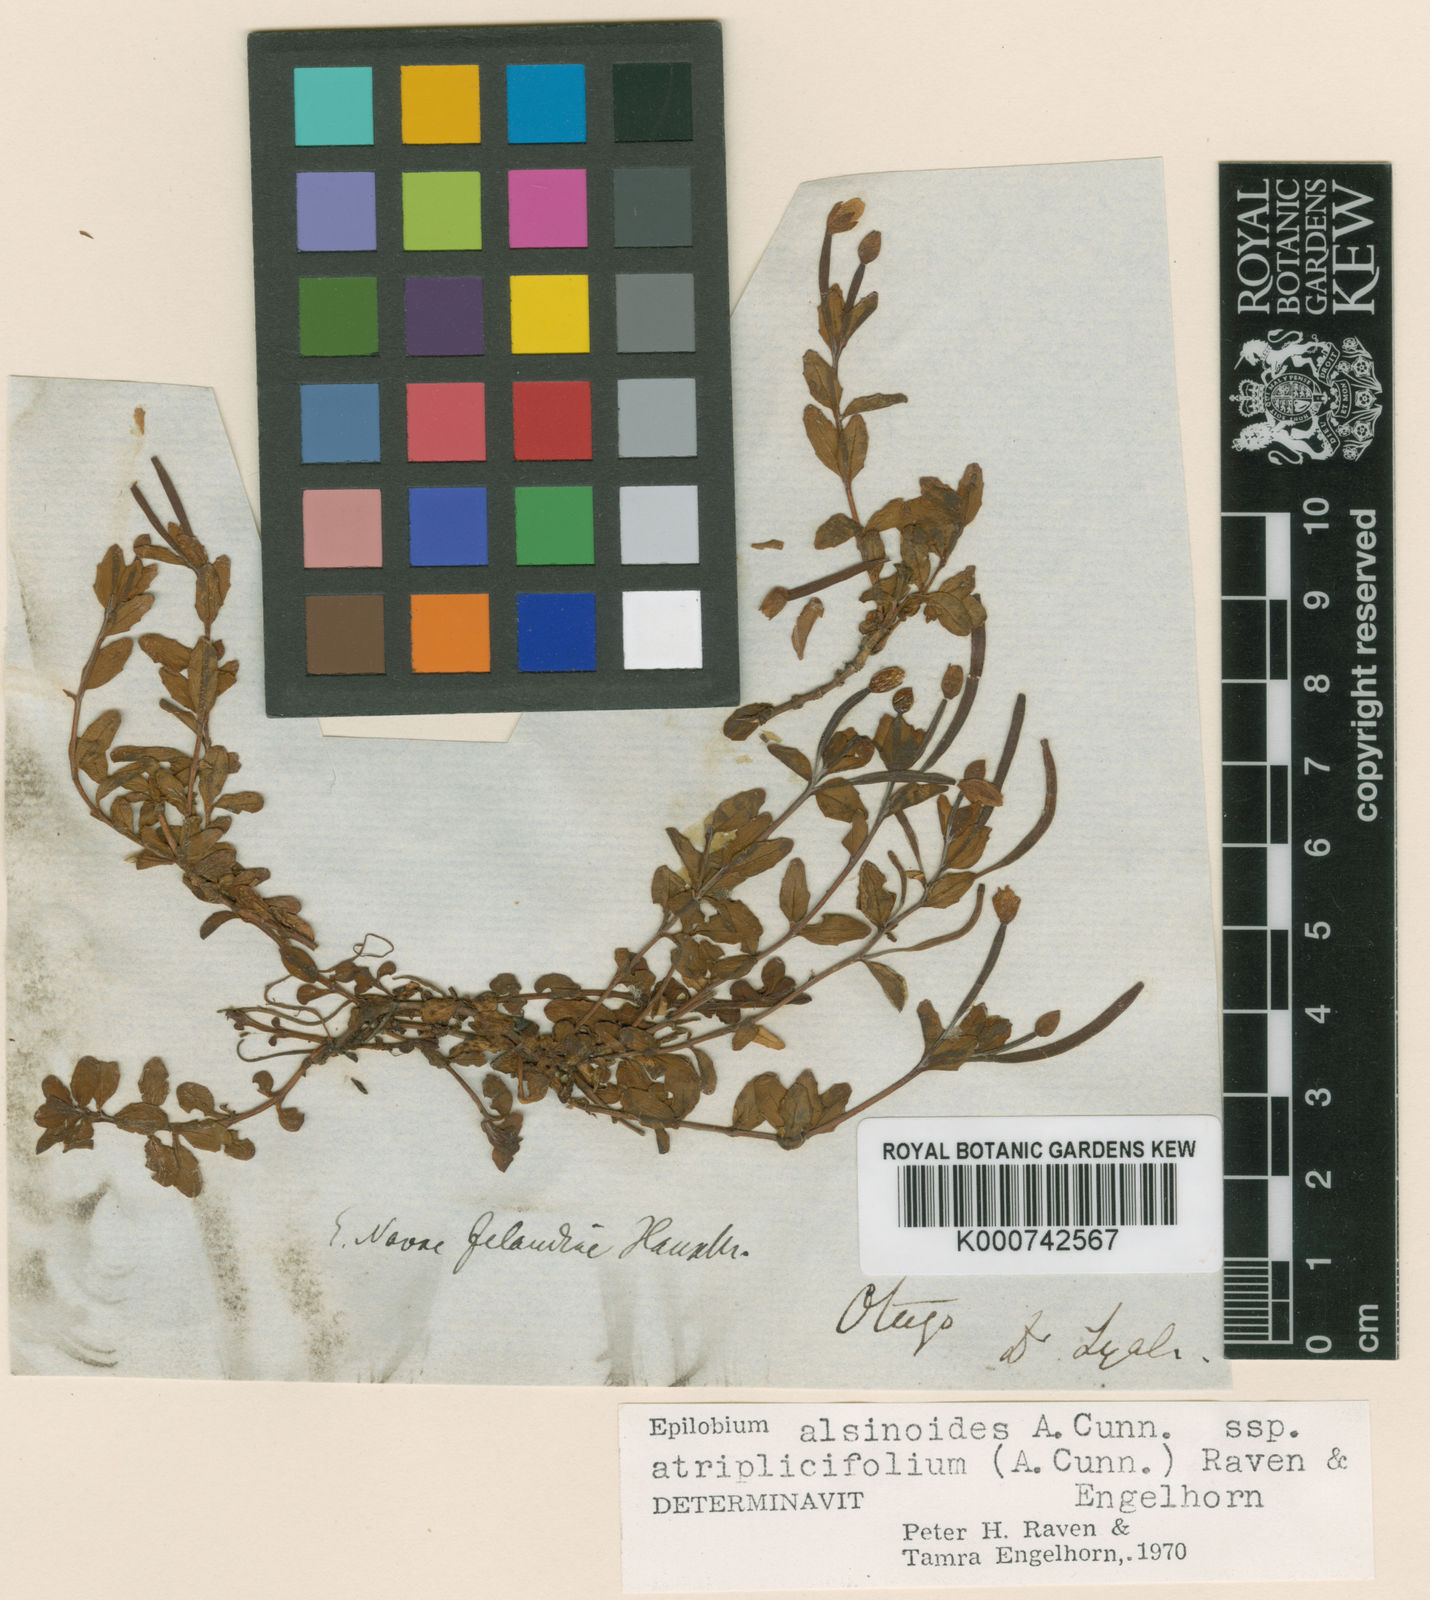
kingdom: Plantae
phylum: Tracheophyta
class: Magnoliopsida
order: Myrtales
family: Onagraceae
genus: Epilobium
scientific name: Epilobium alsinoides
